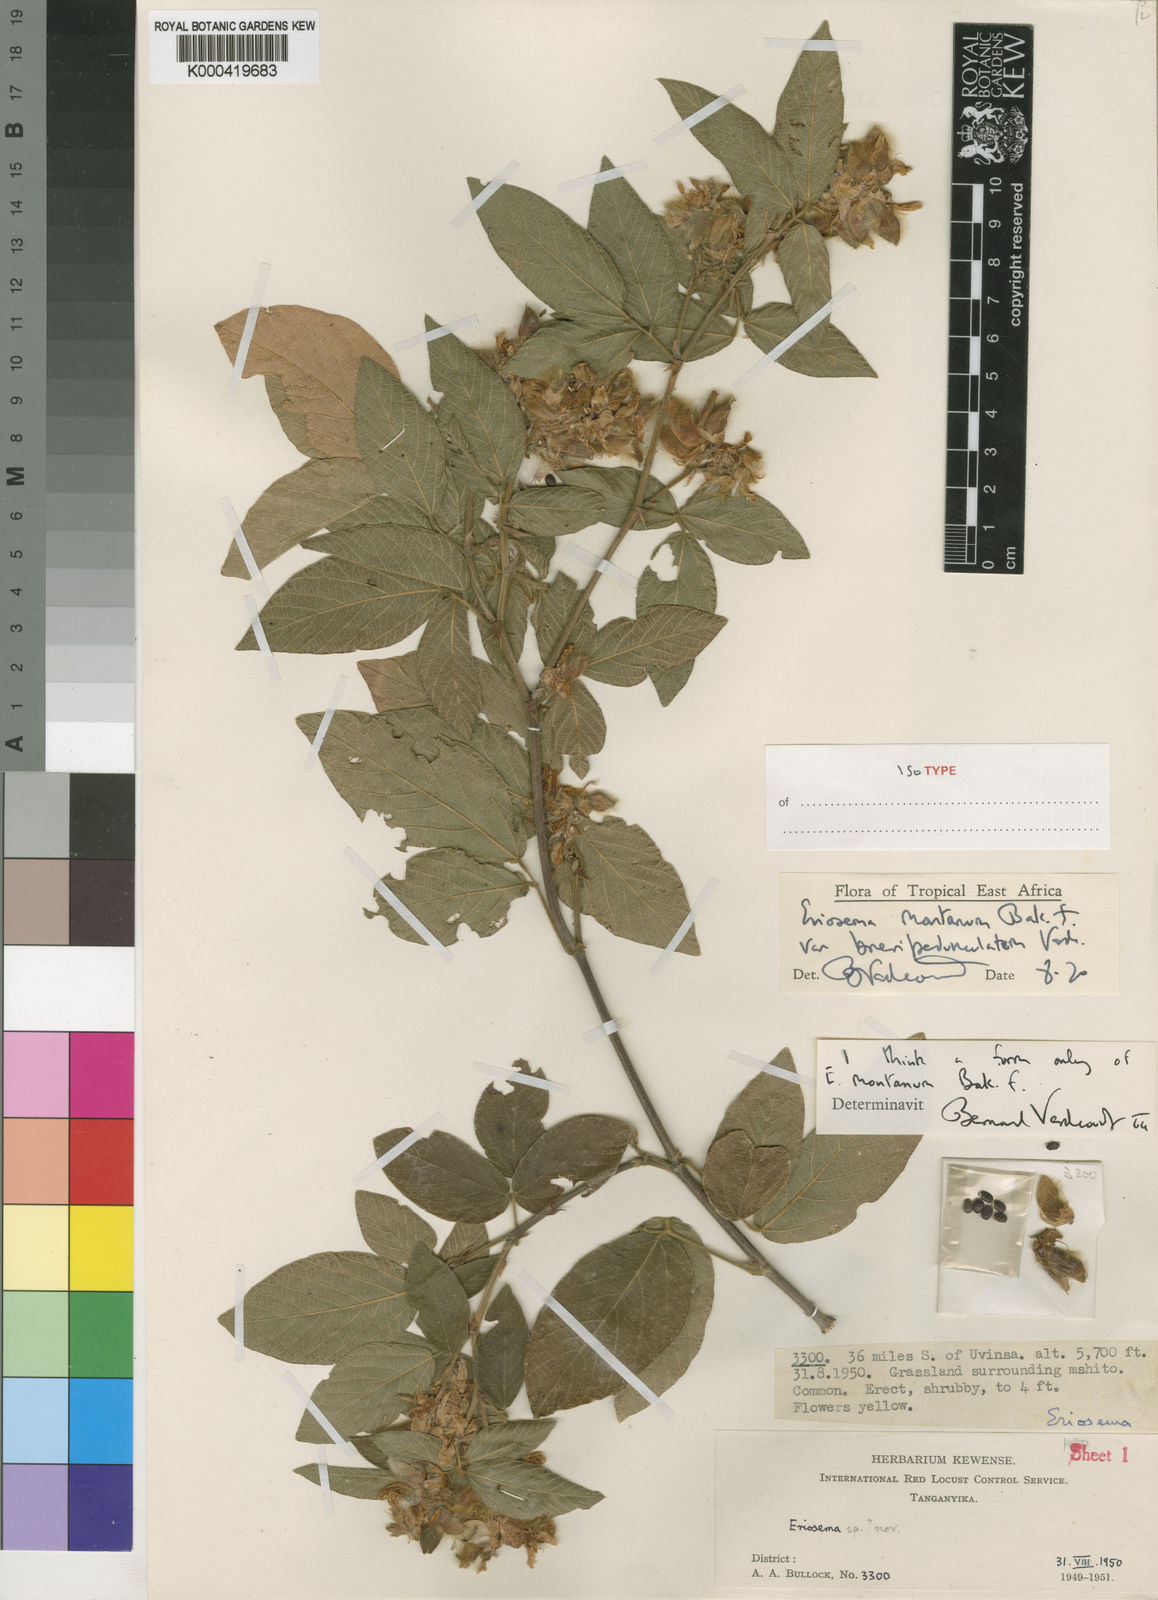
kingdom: Plantae
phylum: Tracheophyta
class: Magnoliopsida
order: Fabales
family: Fabaceae
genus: Eriosema
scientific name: Eriosema montanum
